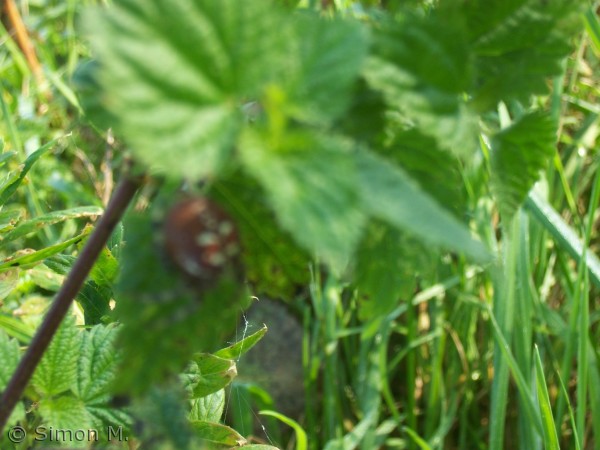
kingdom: Animalia
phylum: Arthropoda
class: Arachnida
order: Araneae
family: Araneidae
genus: Araneus
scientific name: Araneus quadratus
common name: Kvadratedderkop
